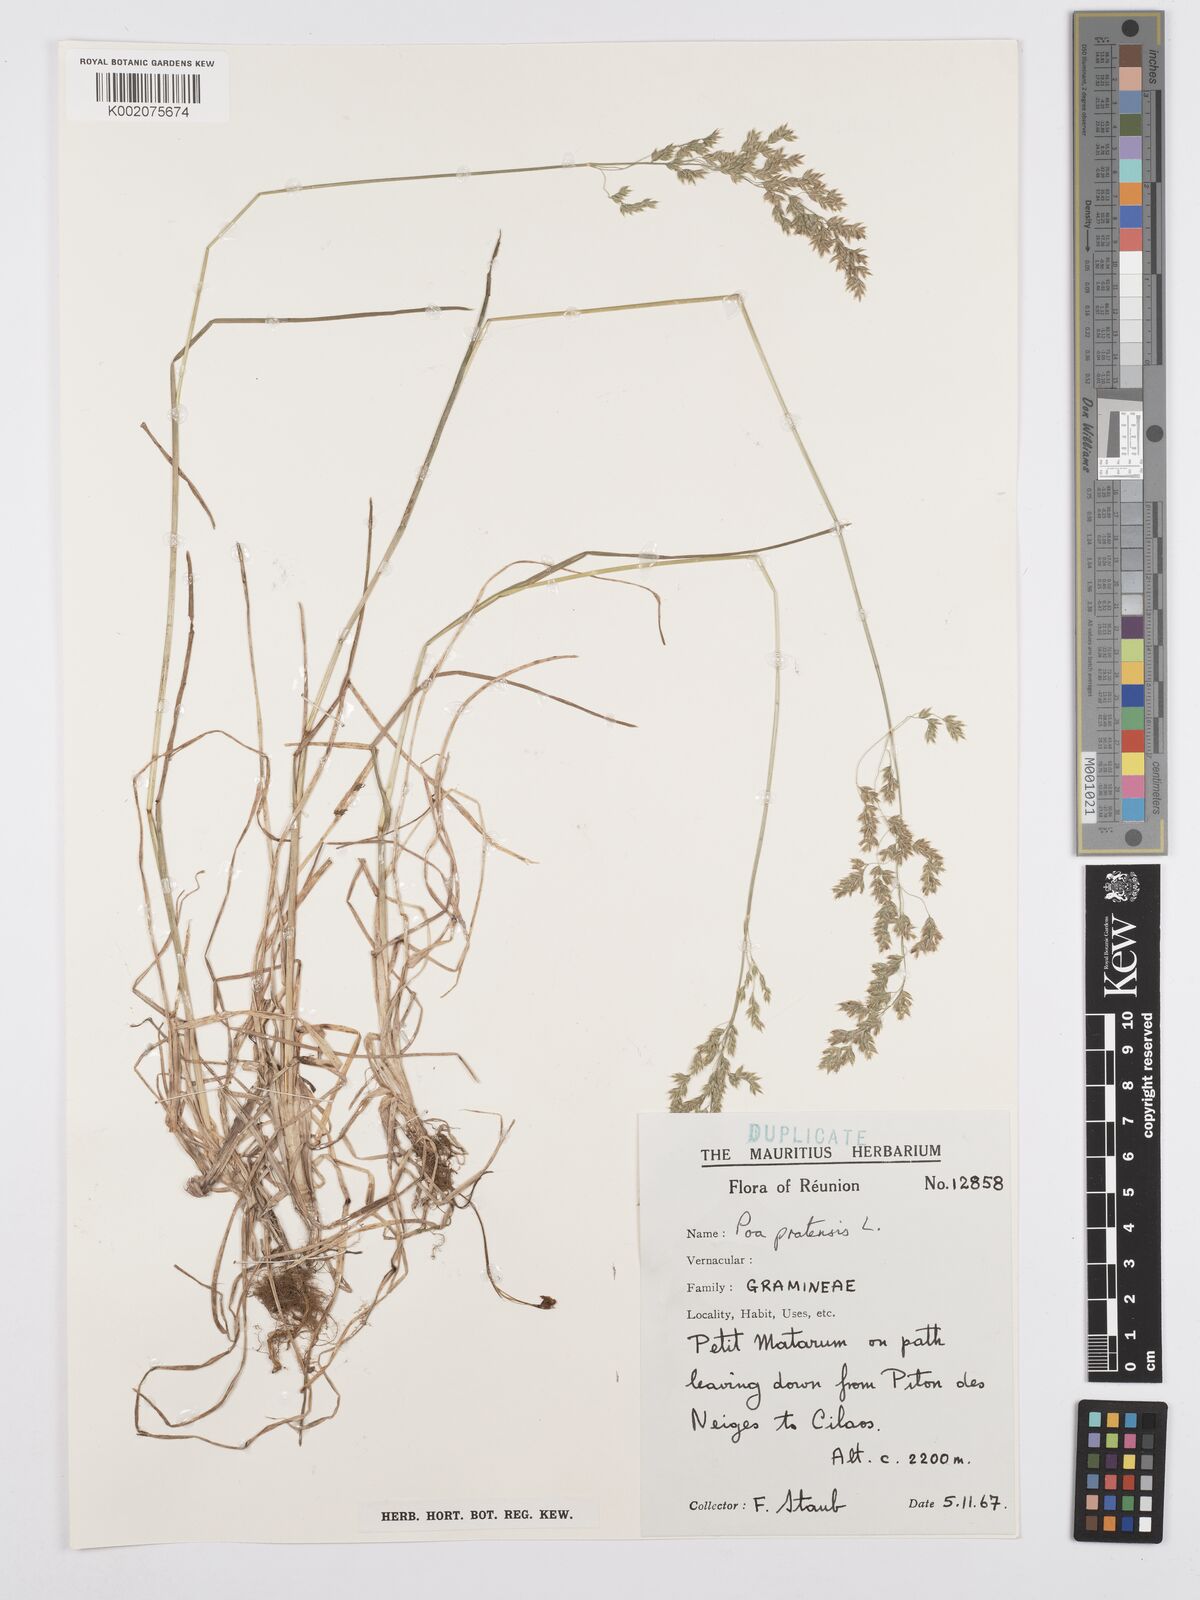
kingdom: Plantae
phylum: Tracheophyta
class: Liliopsida
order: Poales
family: Poaceae
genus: Poa
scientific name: Poa pratensis
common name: Kentucky bluegrass
